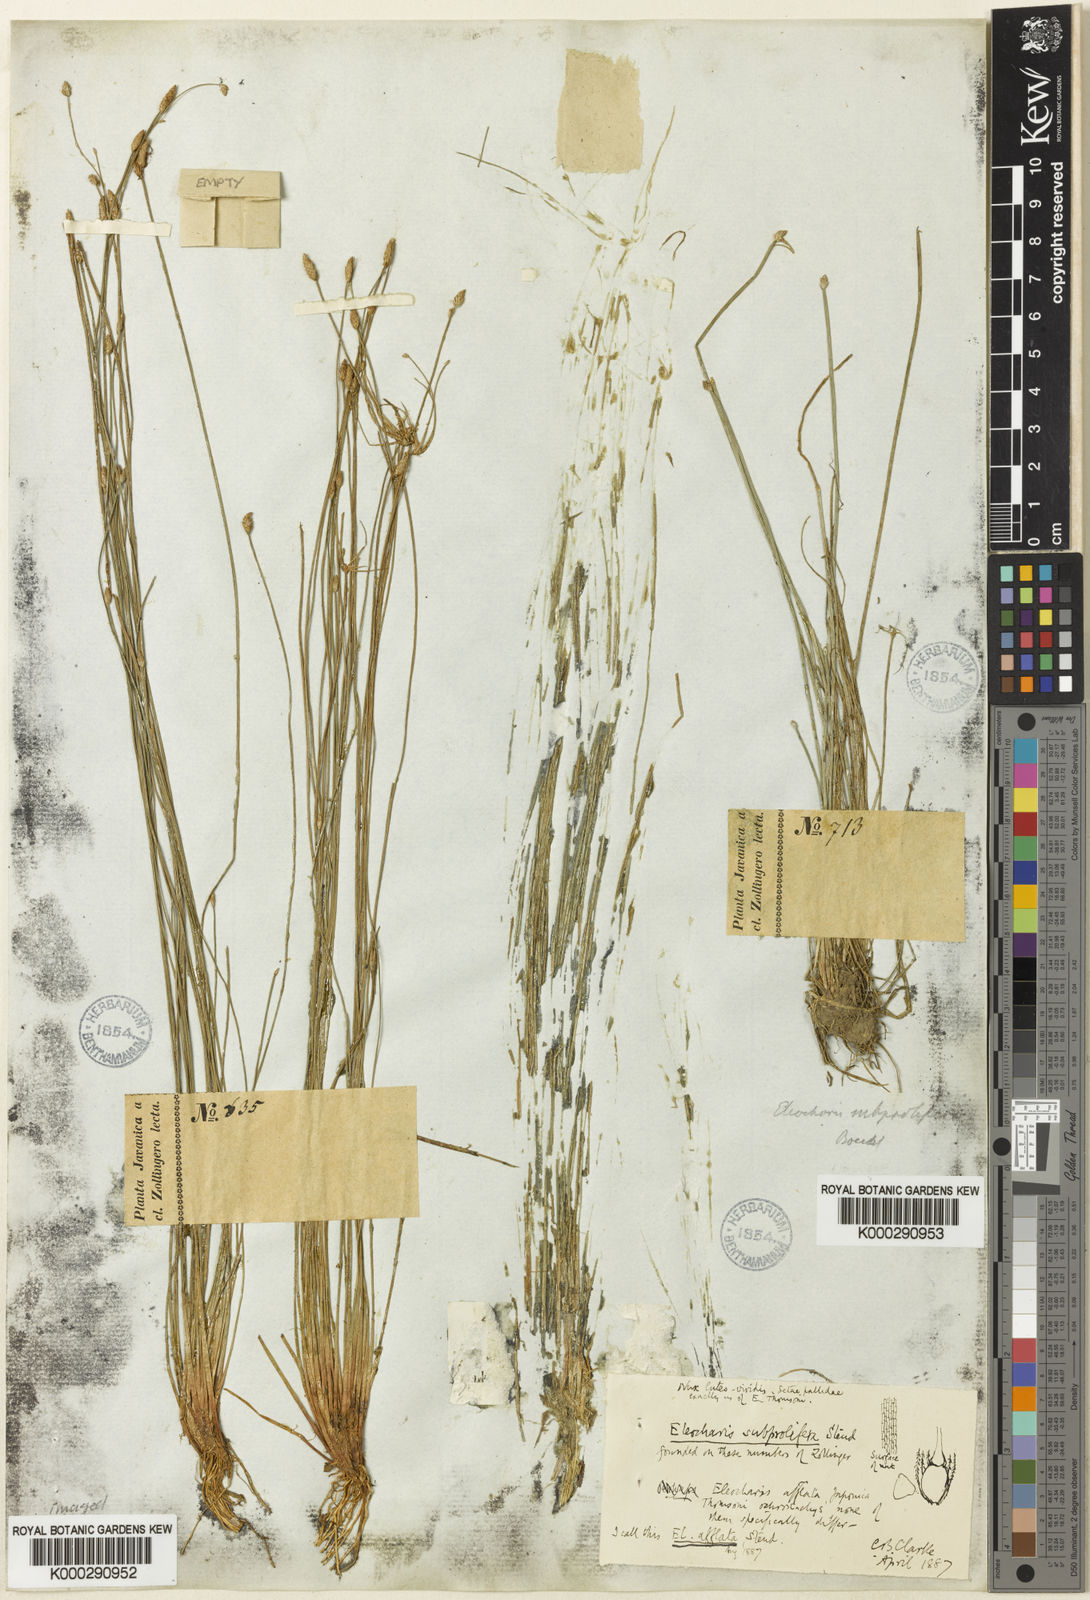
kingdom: Plantae
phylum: Tracheophyta
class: Liliopsida
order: Poales
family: Cyperaceae
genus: Eleocharis
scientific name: Eleocharis pellucida
